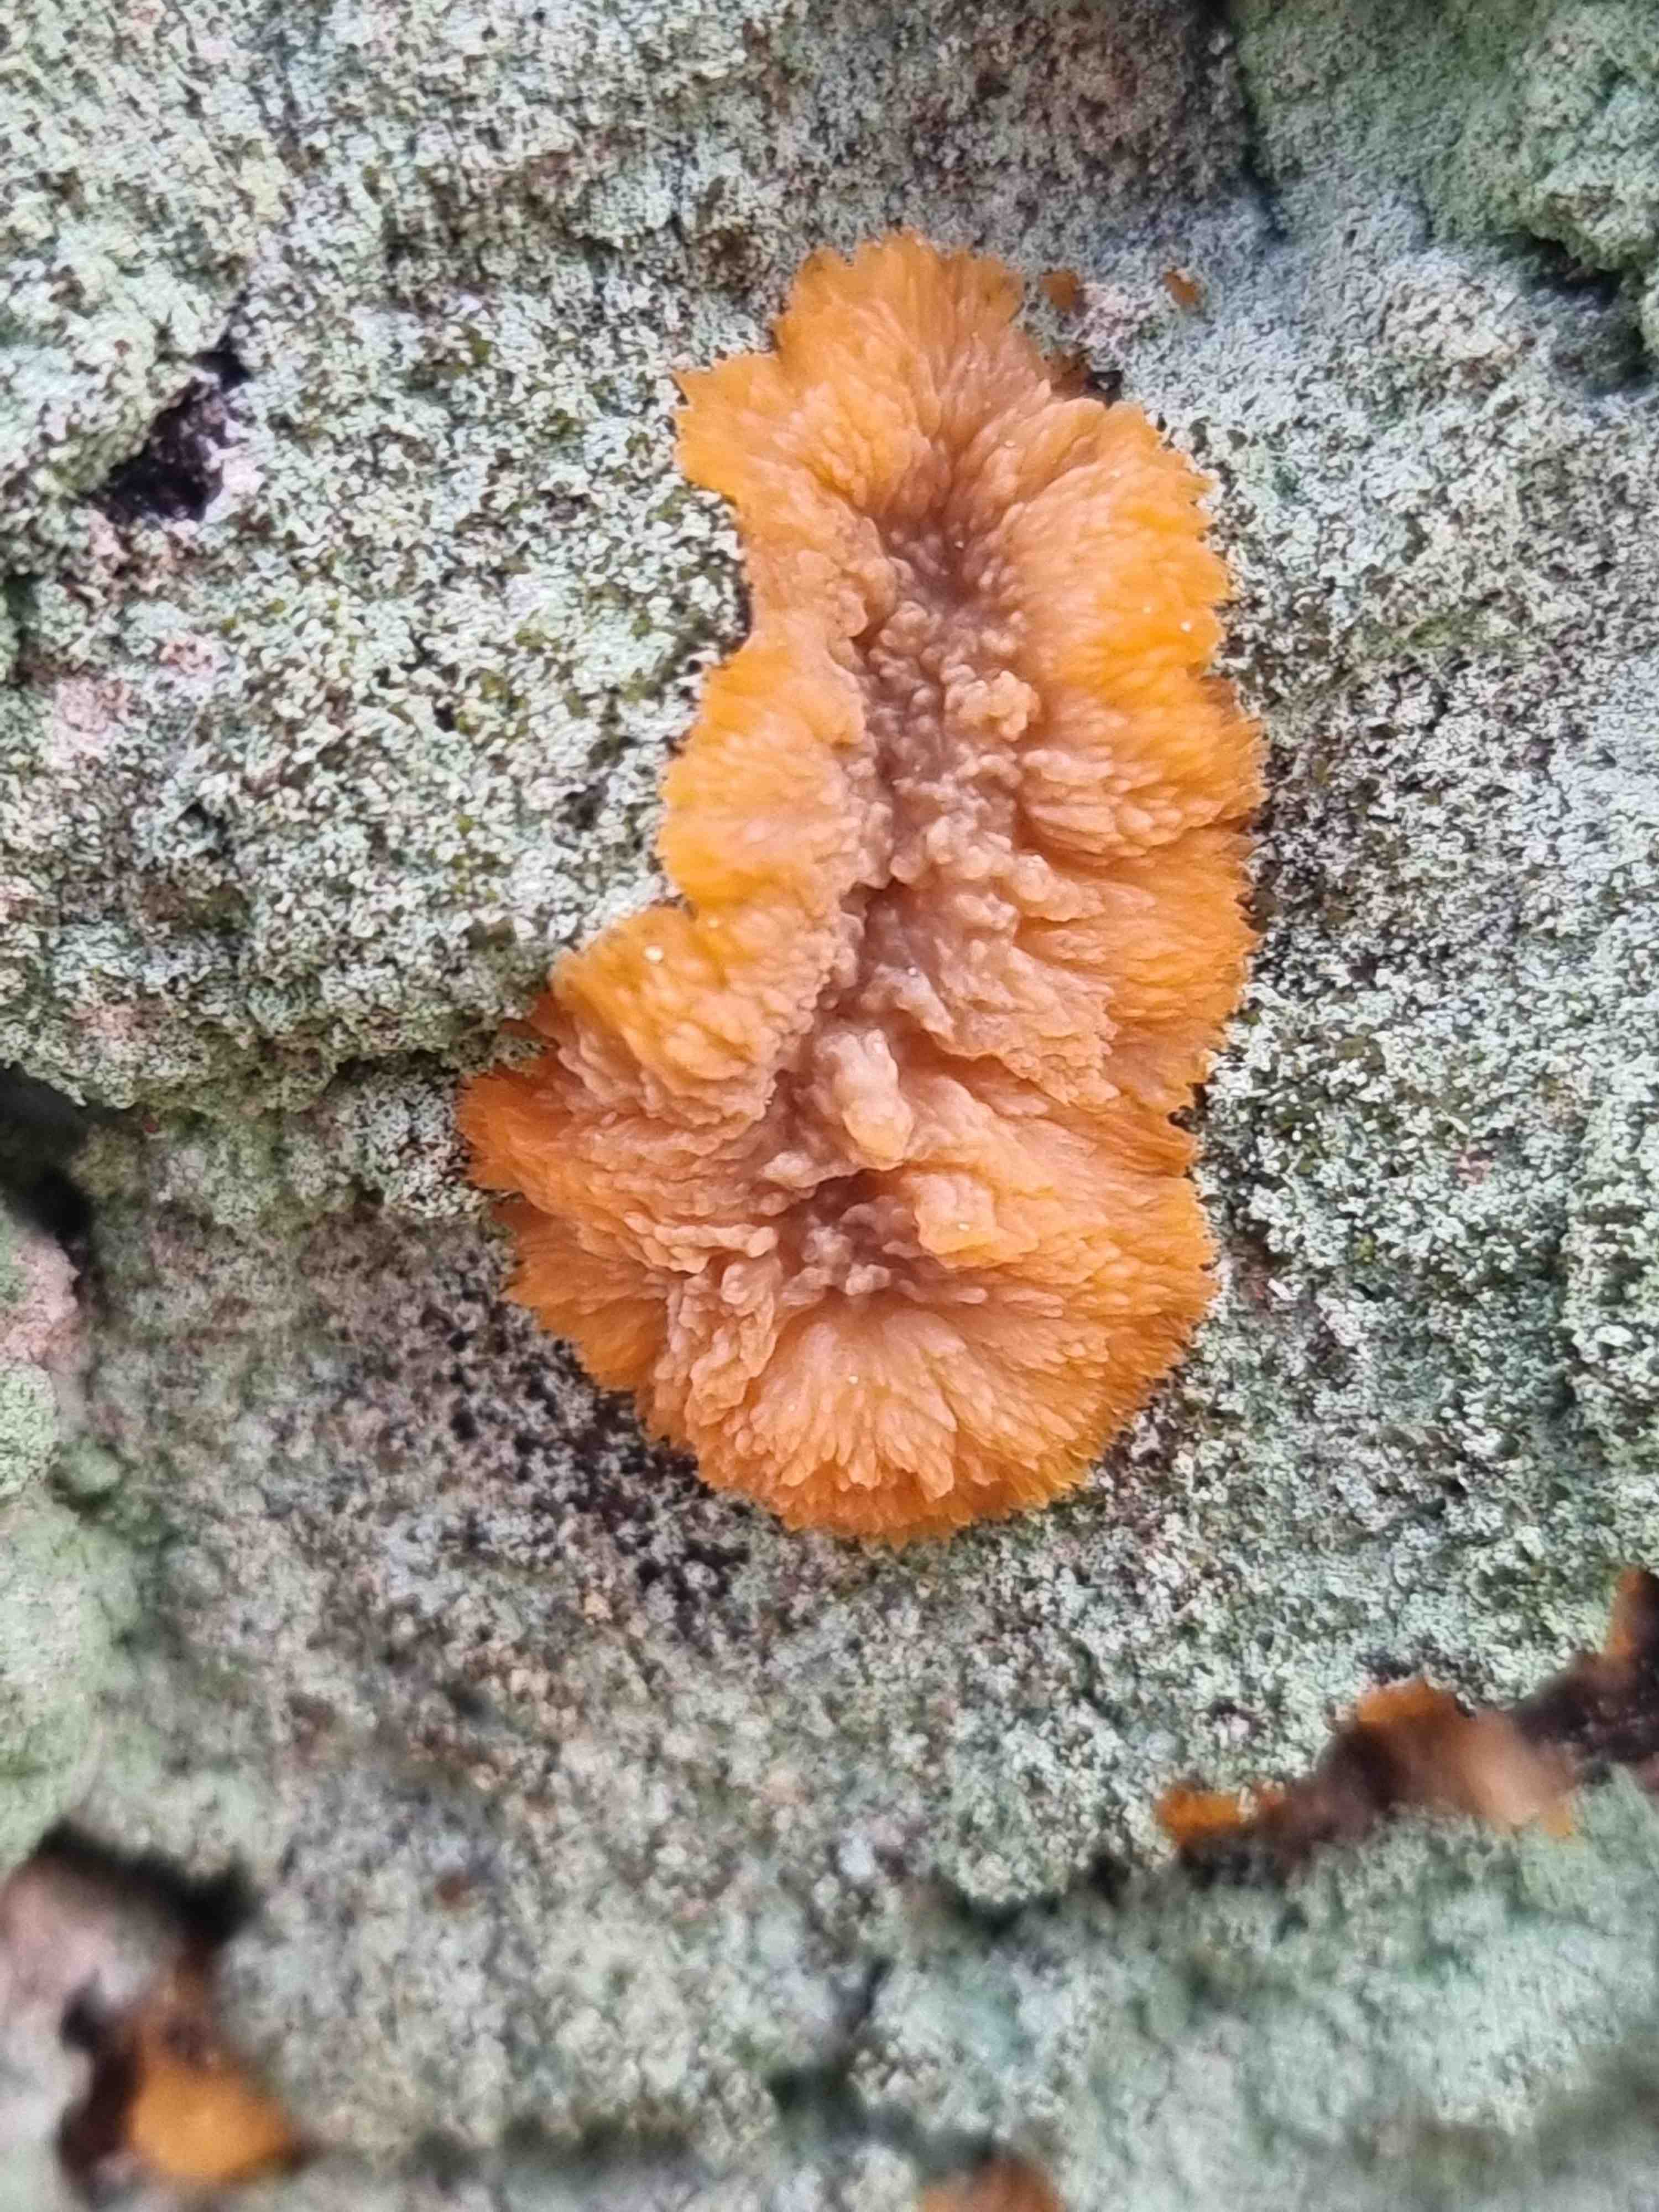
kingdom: Fungi
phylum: Basidiomycota
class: Agaricomycetes
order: Polyporales
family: Meruliaceae
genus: Phlebia
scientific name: Phlebia radiata
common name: stråle-åresvamp
